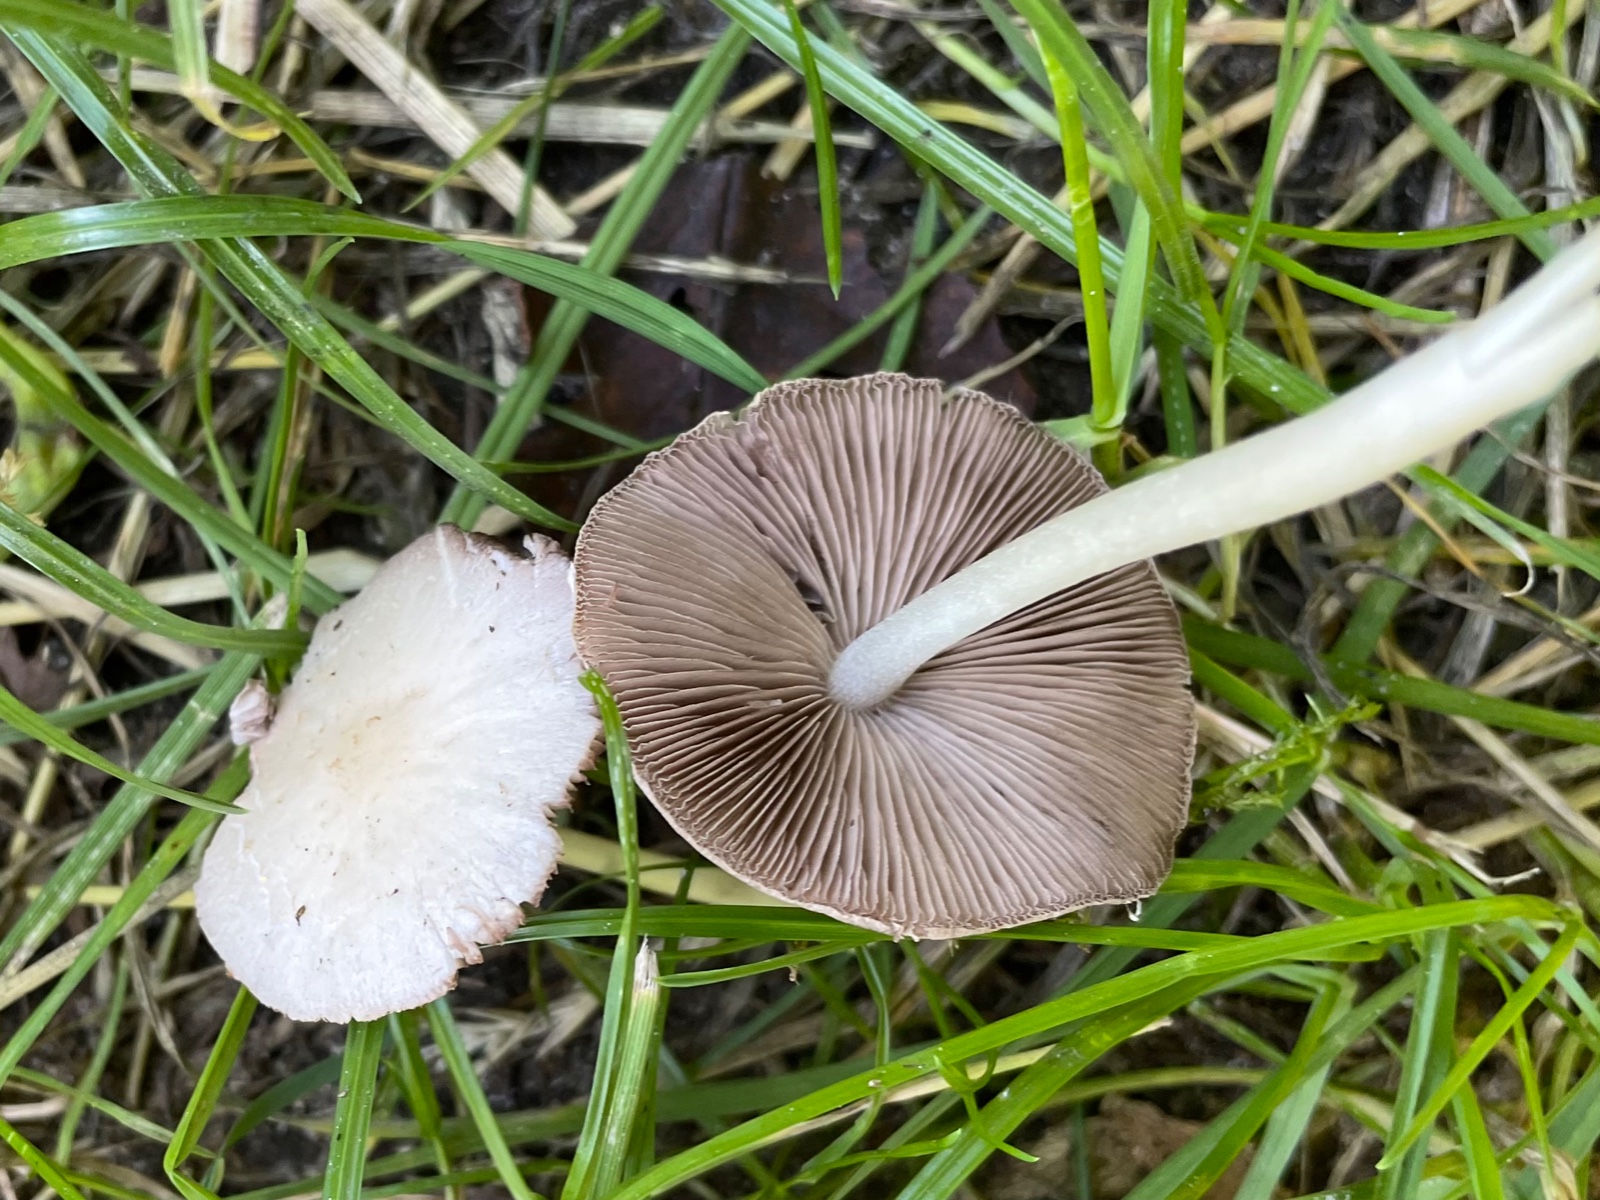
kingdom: Fungi
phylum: Basidiomycota
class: Agaricomycetes
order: Agaricales
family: Psathyrellaceae
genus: Candolleomyces
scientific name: Candolleomyces candolleanus
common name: Candolles mørkhat
